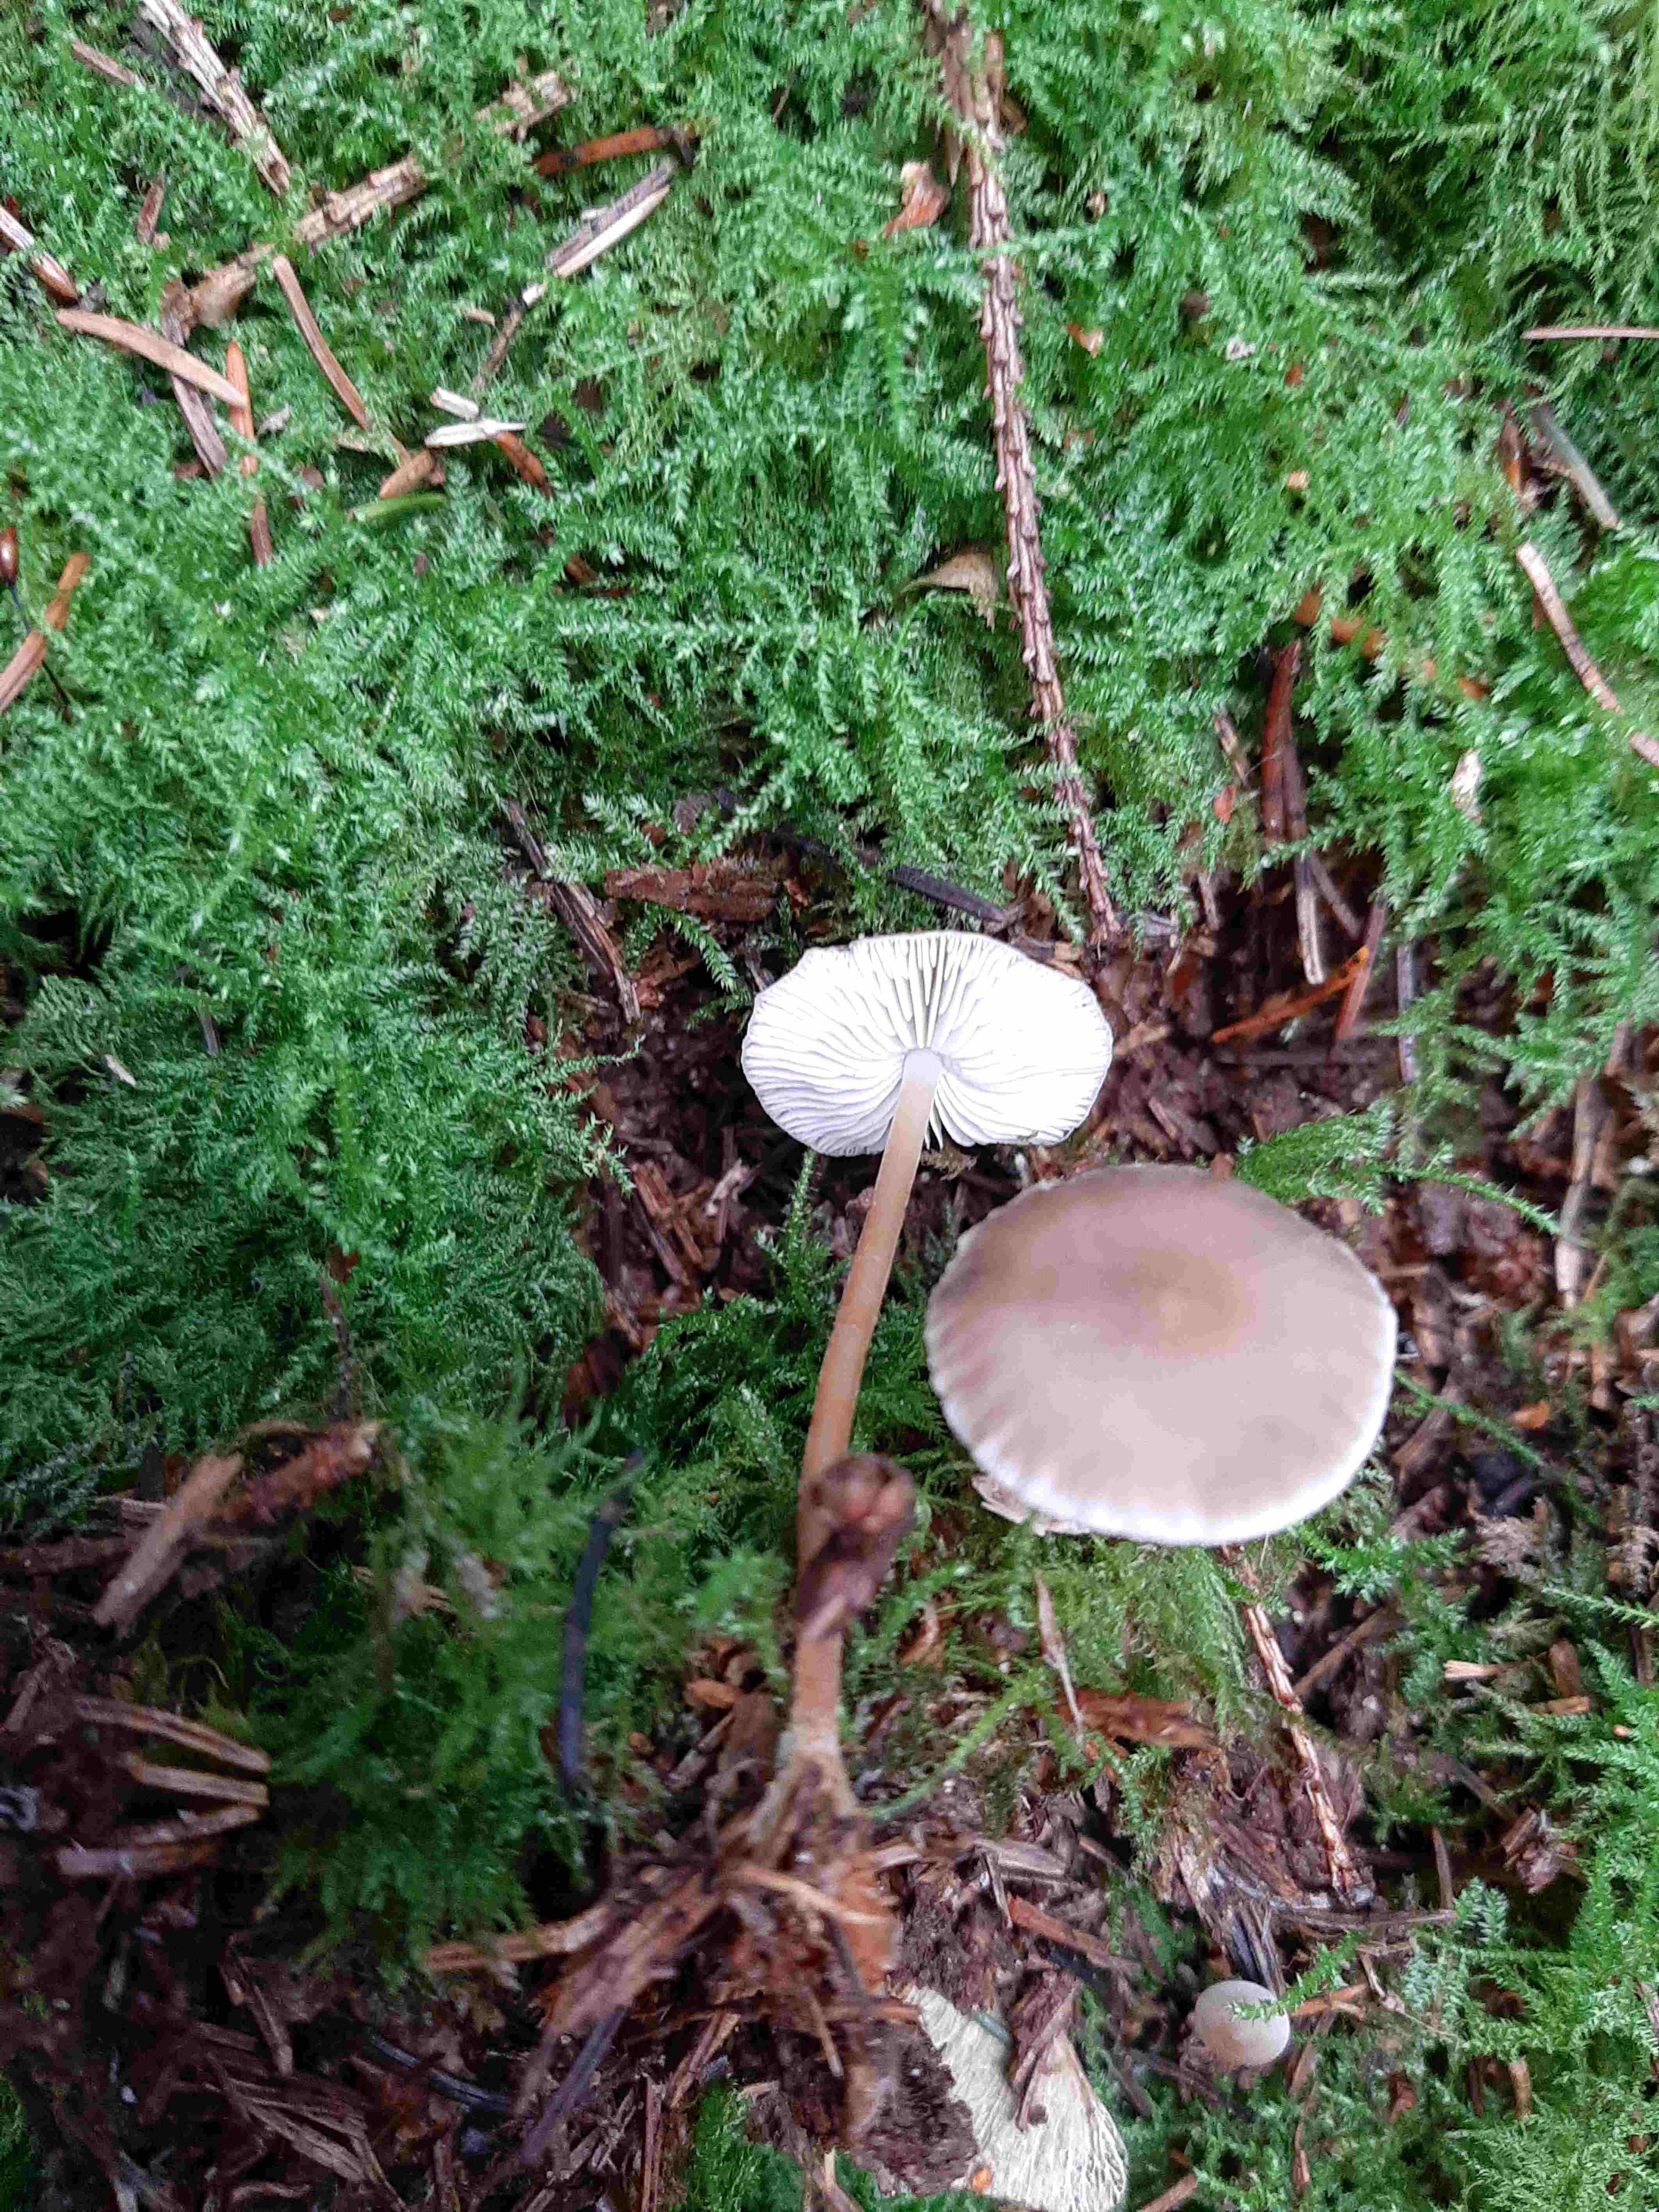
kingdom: Fungi
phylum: Basidiomycota
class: Agaricomycetes
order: Agaricales
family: Physalacriaceae
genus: Strobilurus
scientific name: Strobilurus esculentus
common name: gran-koglehat
